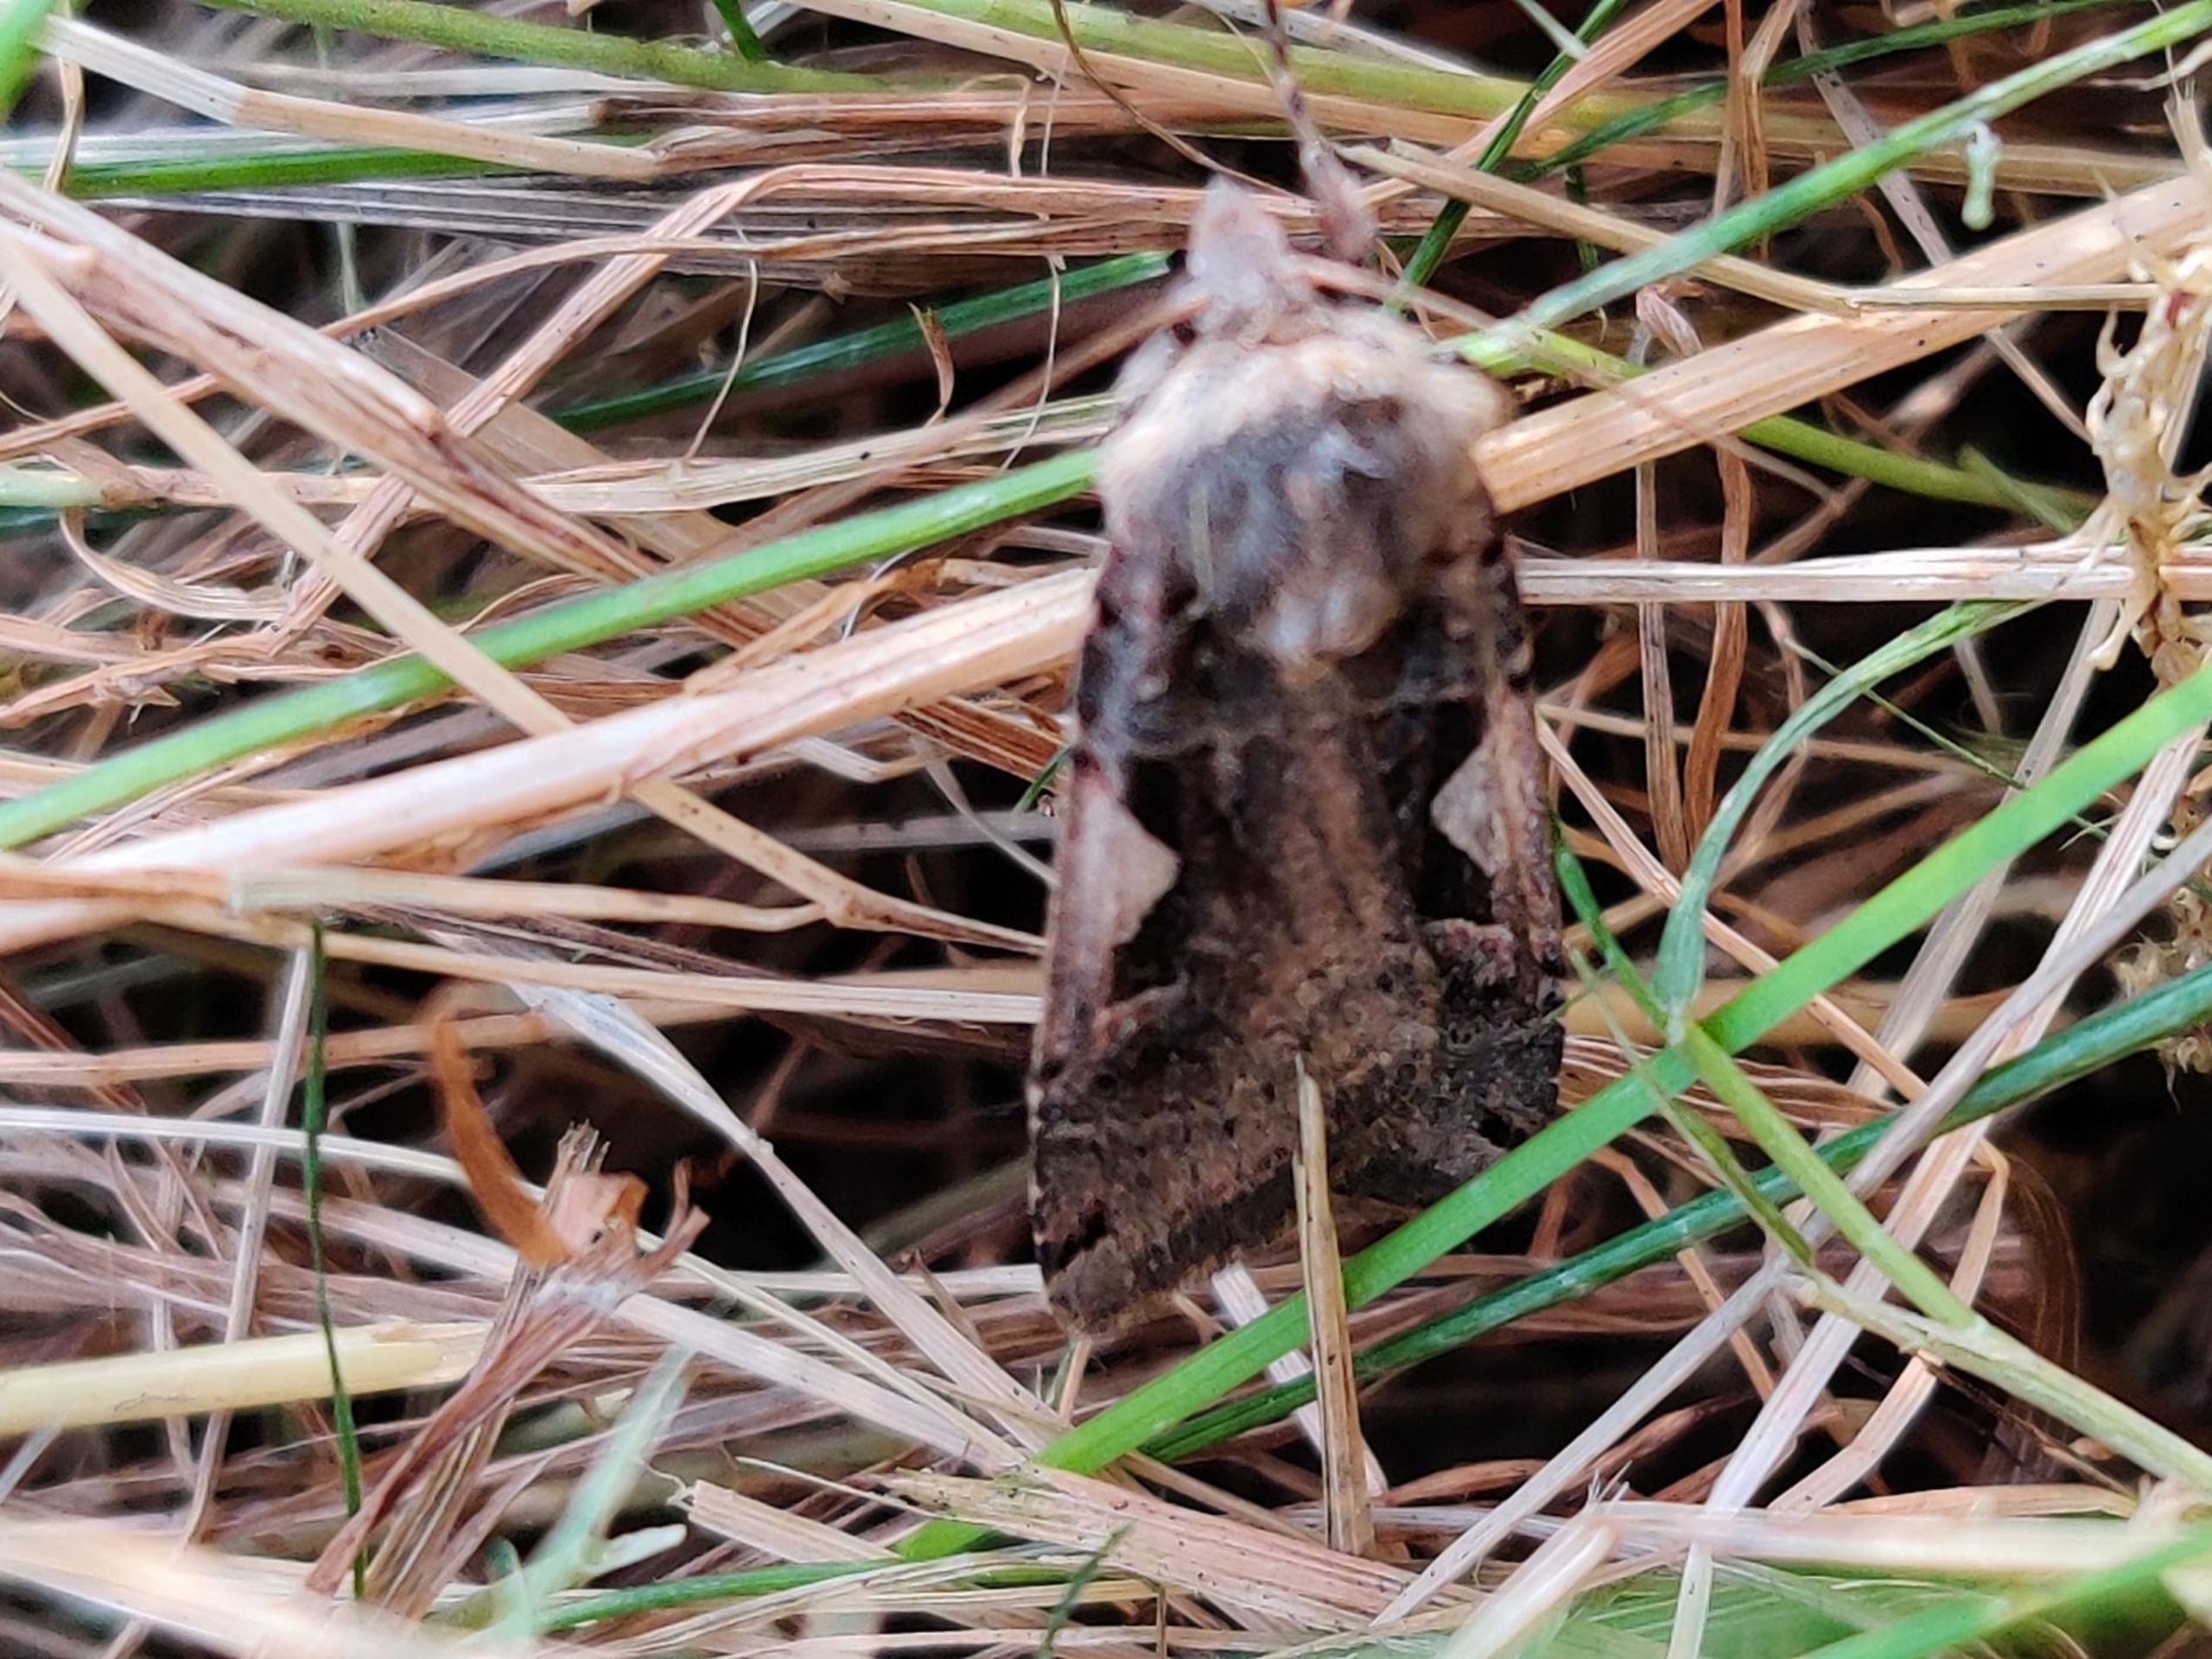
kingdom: Animalia
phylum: Arthropoda
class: Insecta
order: Lepidoptera
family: Noctuidae
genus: Xestia
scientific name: Xestia c-nigrum
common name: Det sorte c
